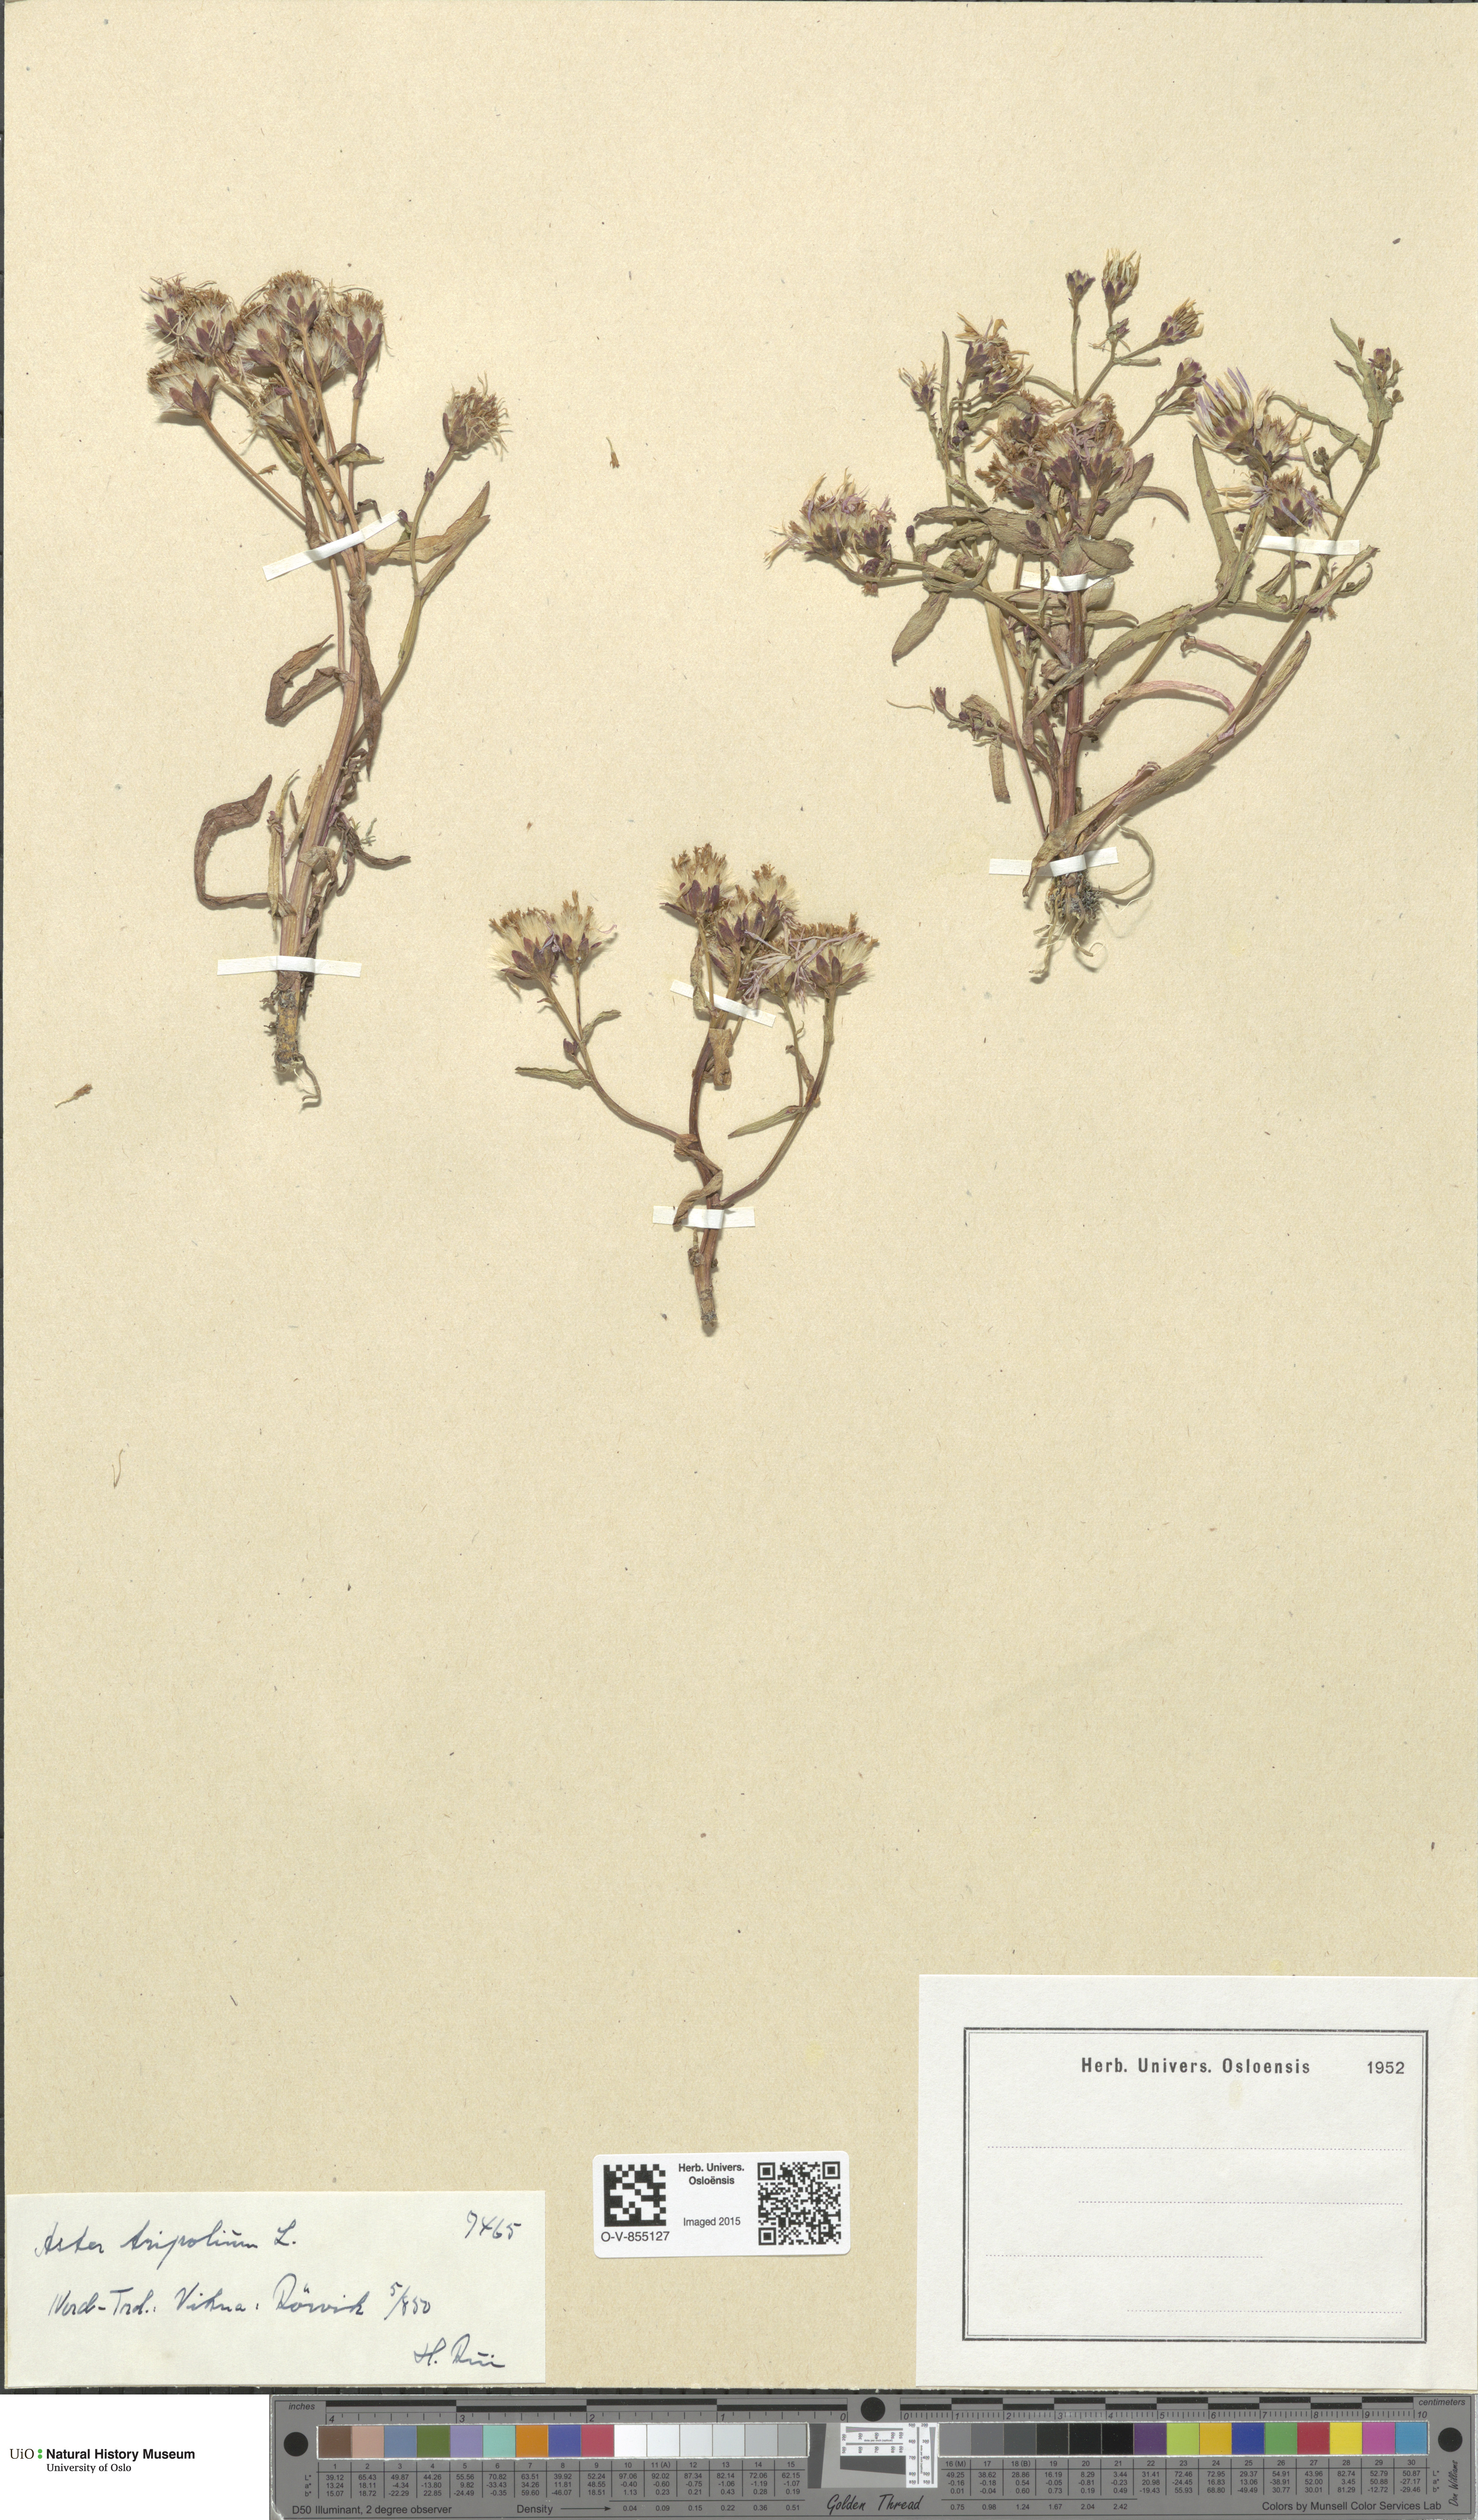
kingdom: Plantae
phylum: Tracheophyta
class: Magnoliopsida
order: Asterales
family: Asteraceae
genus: Tripolium
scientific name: Tripolium pannonicum
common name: Sea aster
